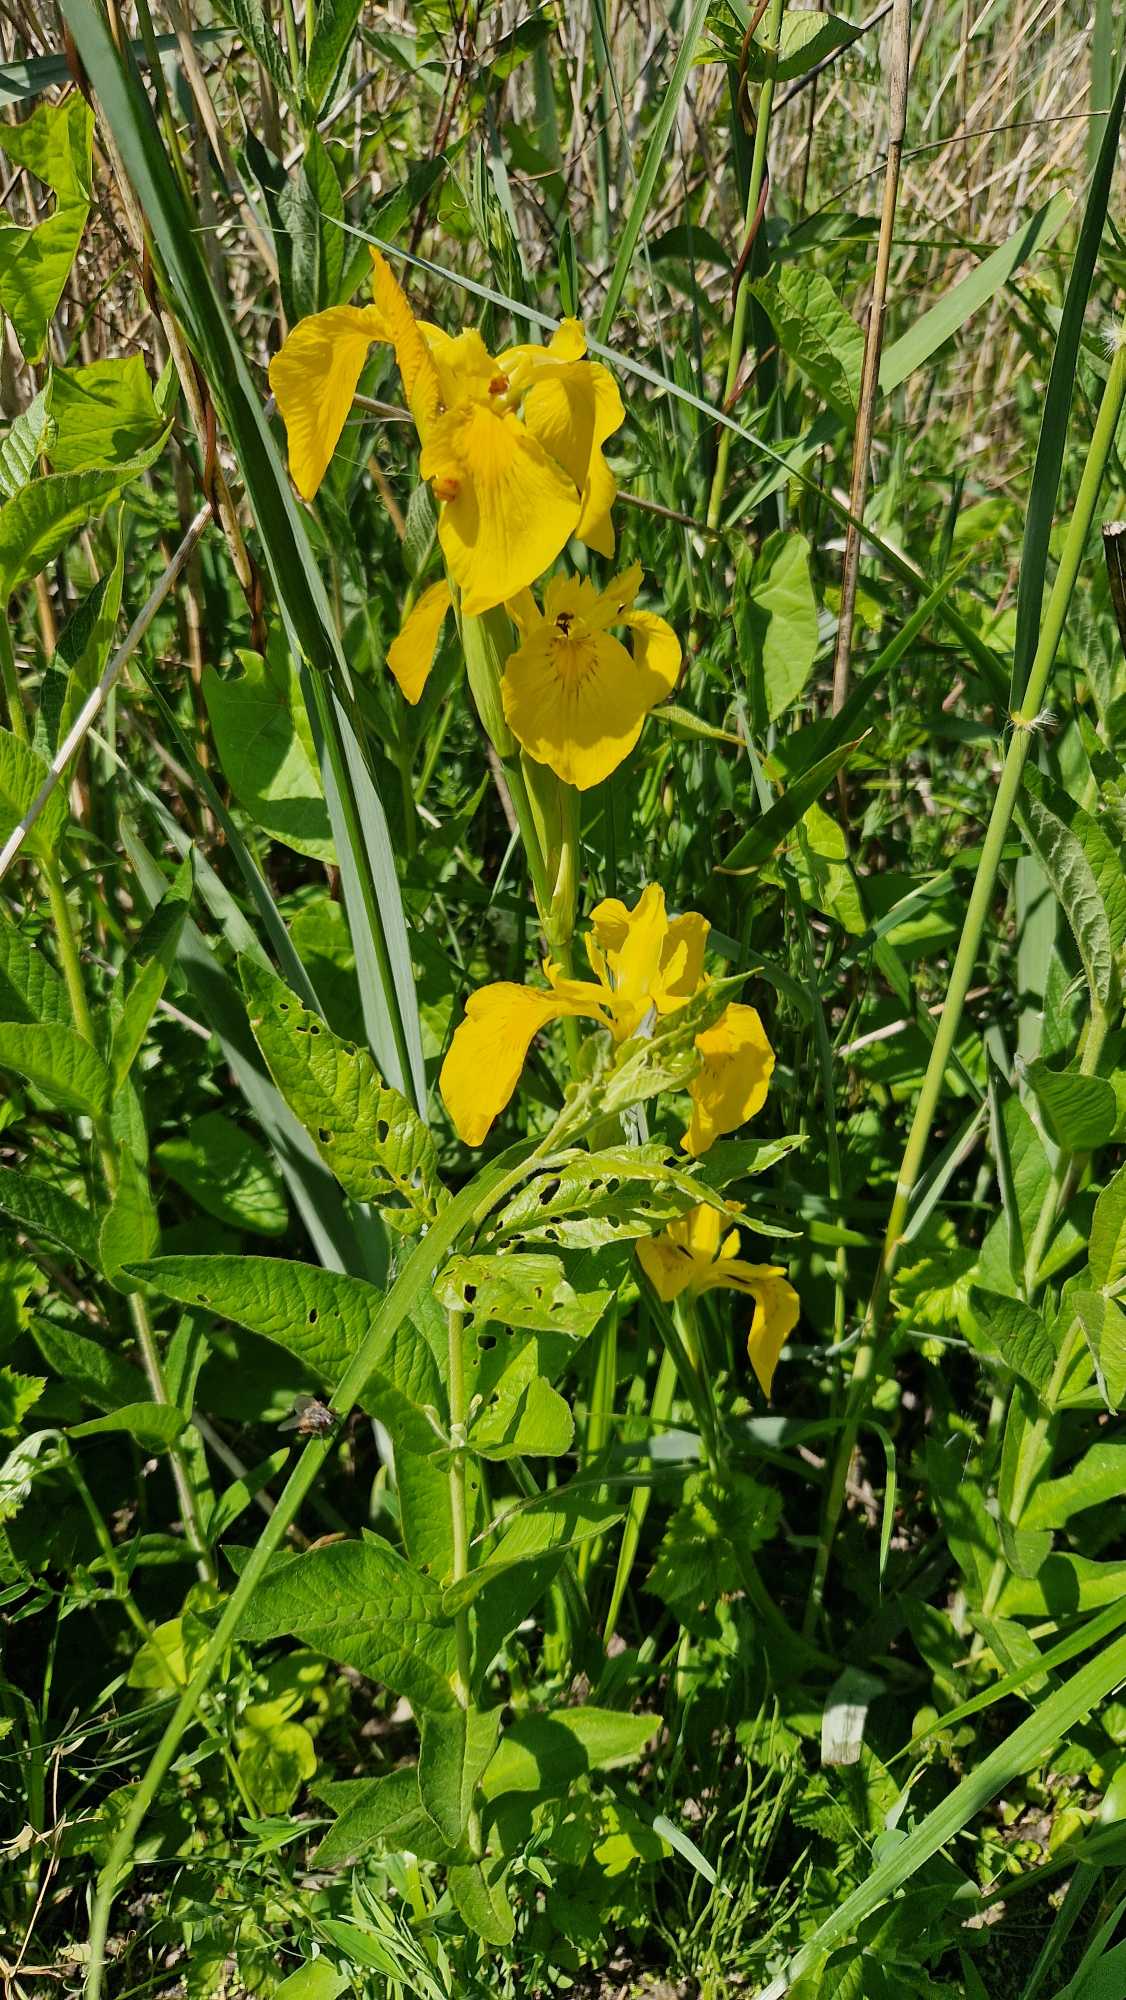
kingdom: Plantae
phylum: Tracheophyta
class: Liliopsida
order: Asparagales
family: Iridaceae
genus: Iris
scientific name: Iris pseudacorus
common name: Gul iris
